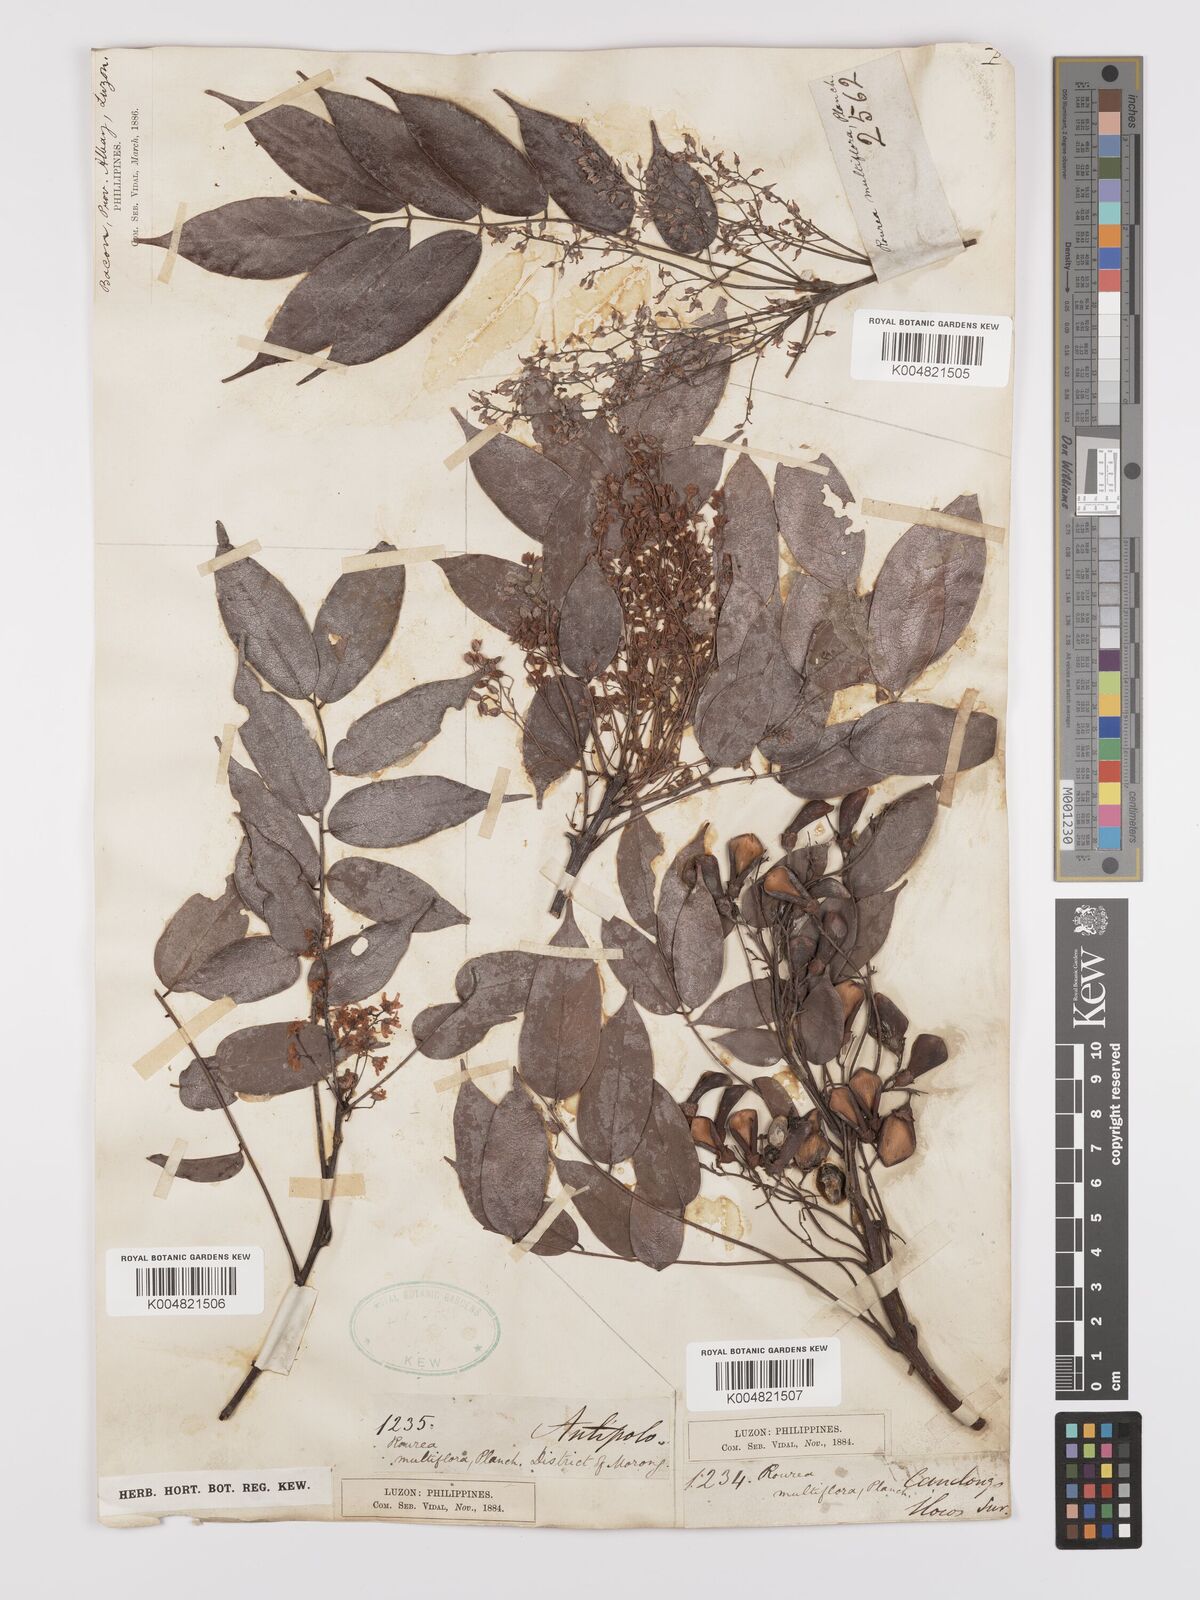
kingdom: Plantae
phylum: Tracheophyta
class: Magnoliopsida
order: Oxalidales
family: Connaraceae
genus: Rourea
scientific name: Rourea minor
